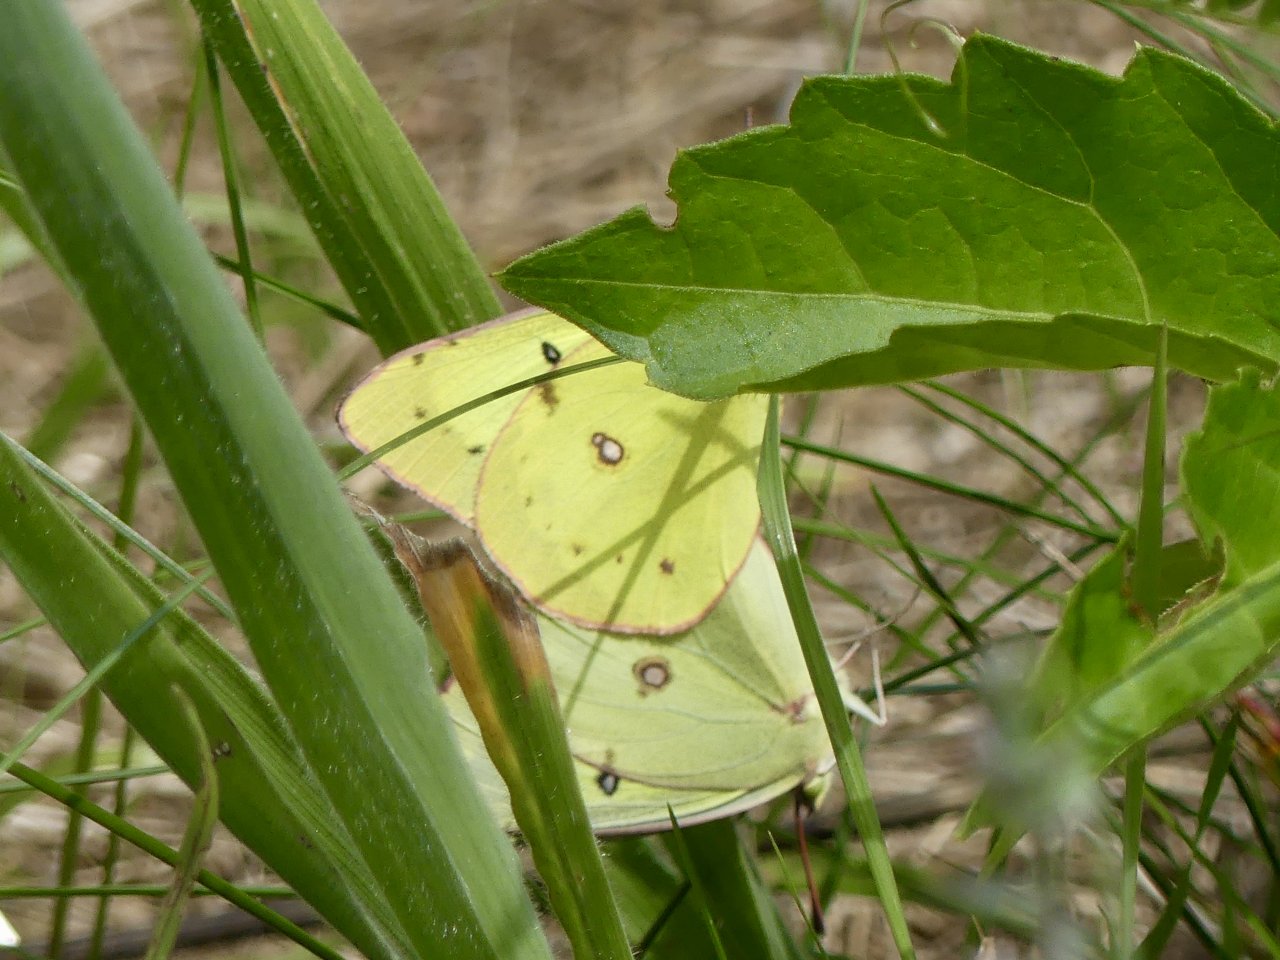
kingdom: Animalia
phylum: Arthropoda
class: Insecta
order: Lepidoptera
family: Pieridae
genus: Colias
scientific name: Colias eurytheme
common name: Orange Sulphur
